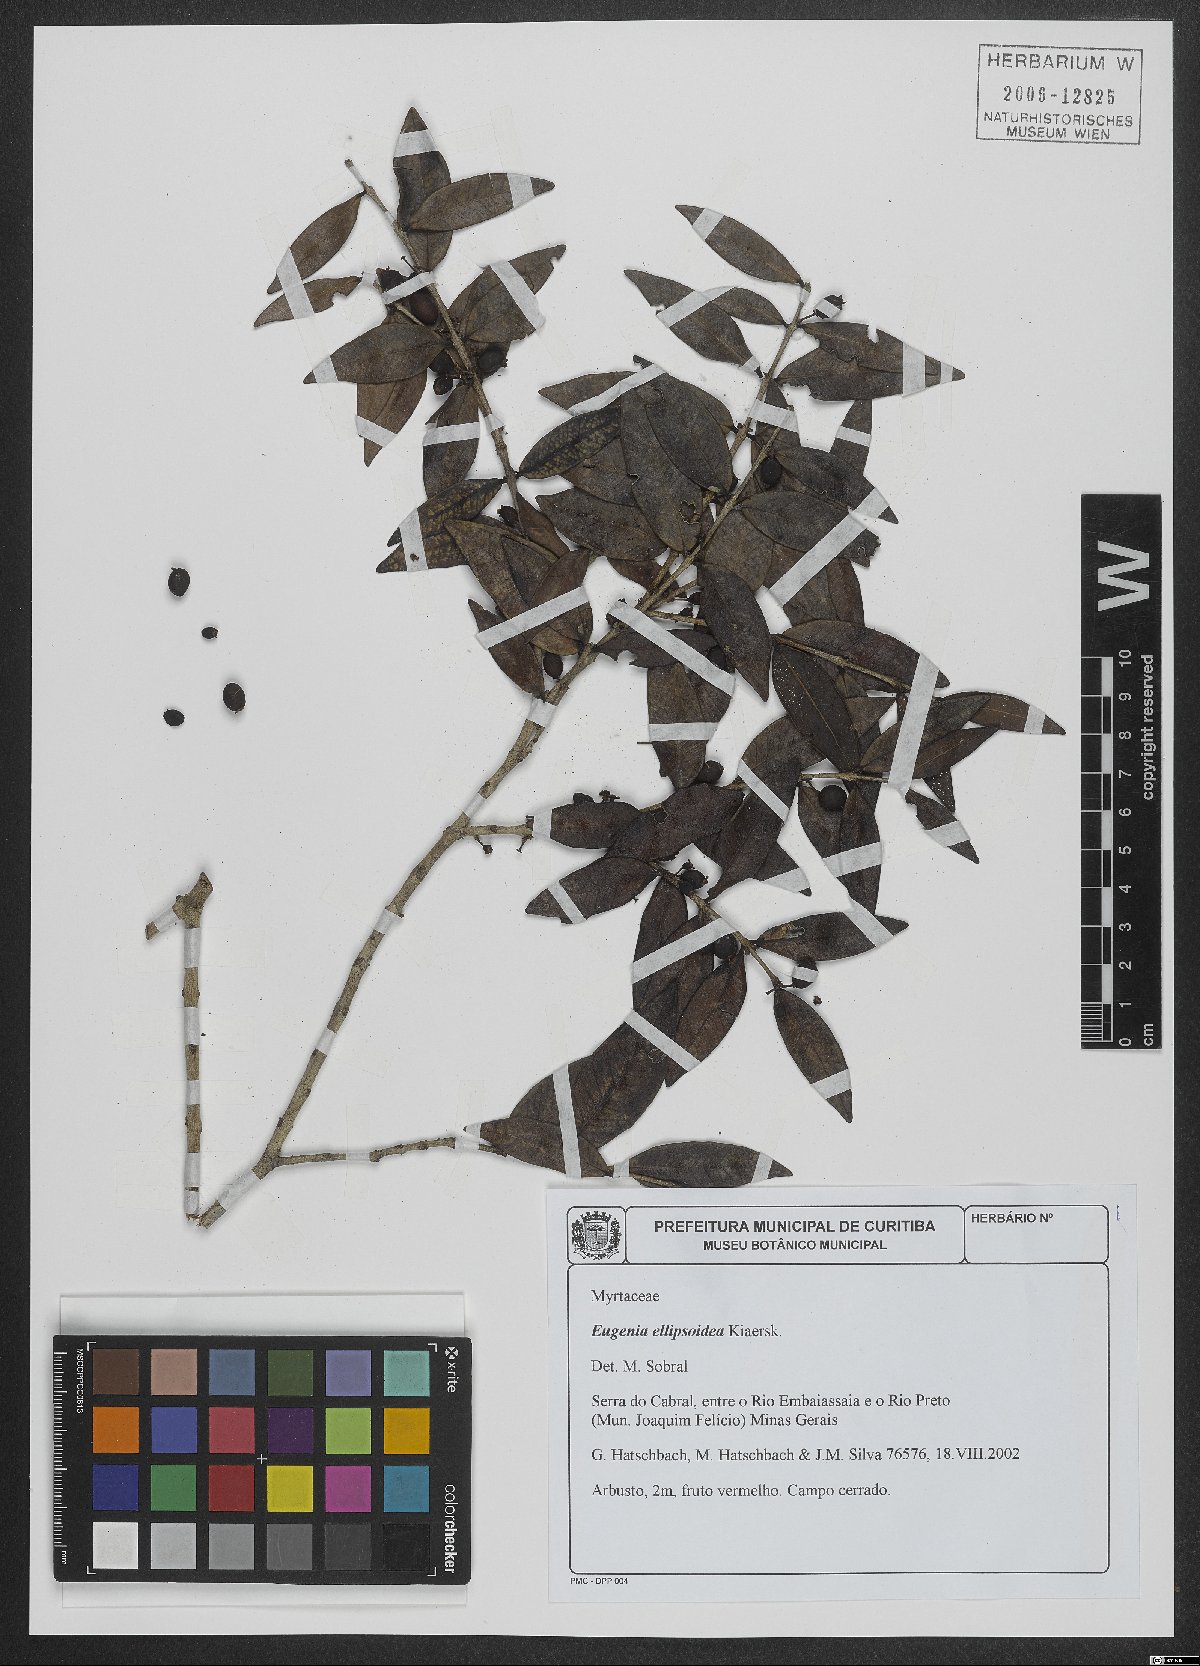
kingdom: Plantae
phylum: Tracheophyta
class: Magnoliopsida
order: Myrtales
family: Myrtaceae
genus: Eugenia
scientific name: Eugenia ellipsoidea
